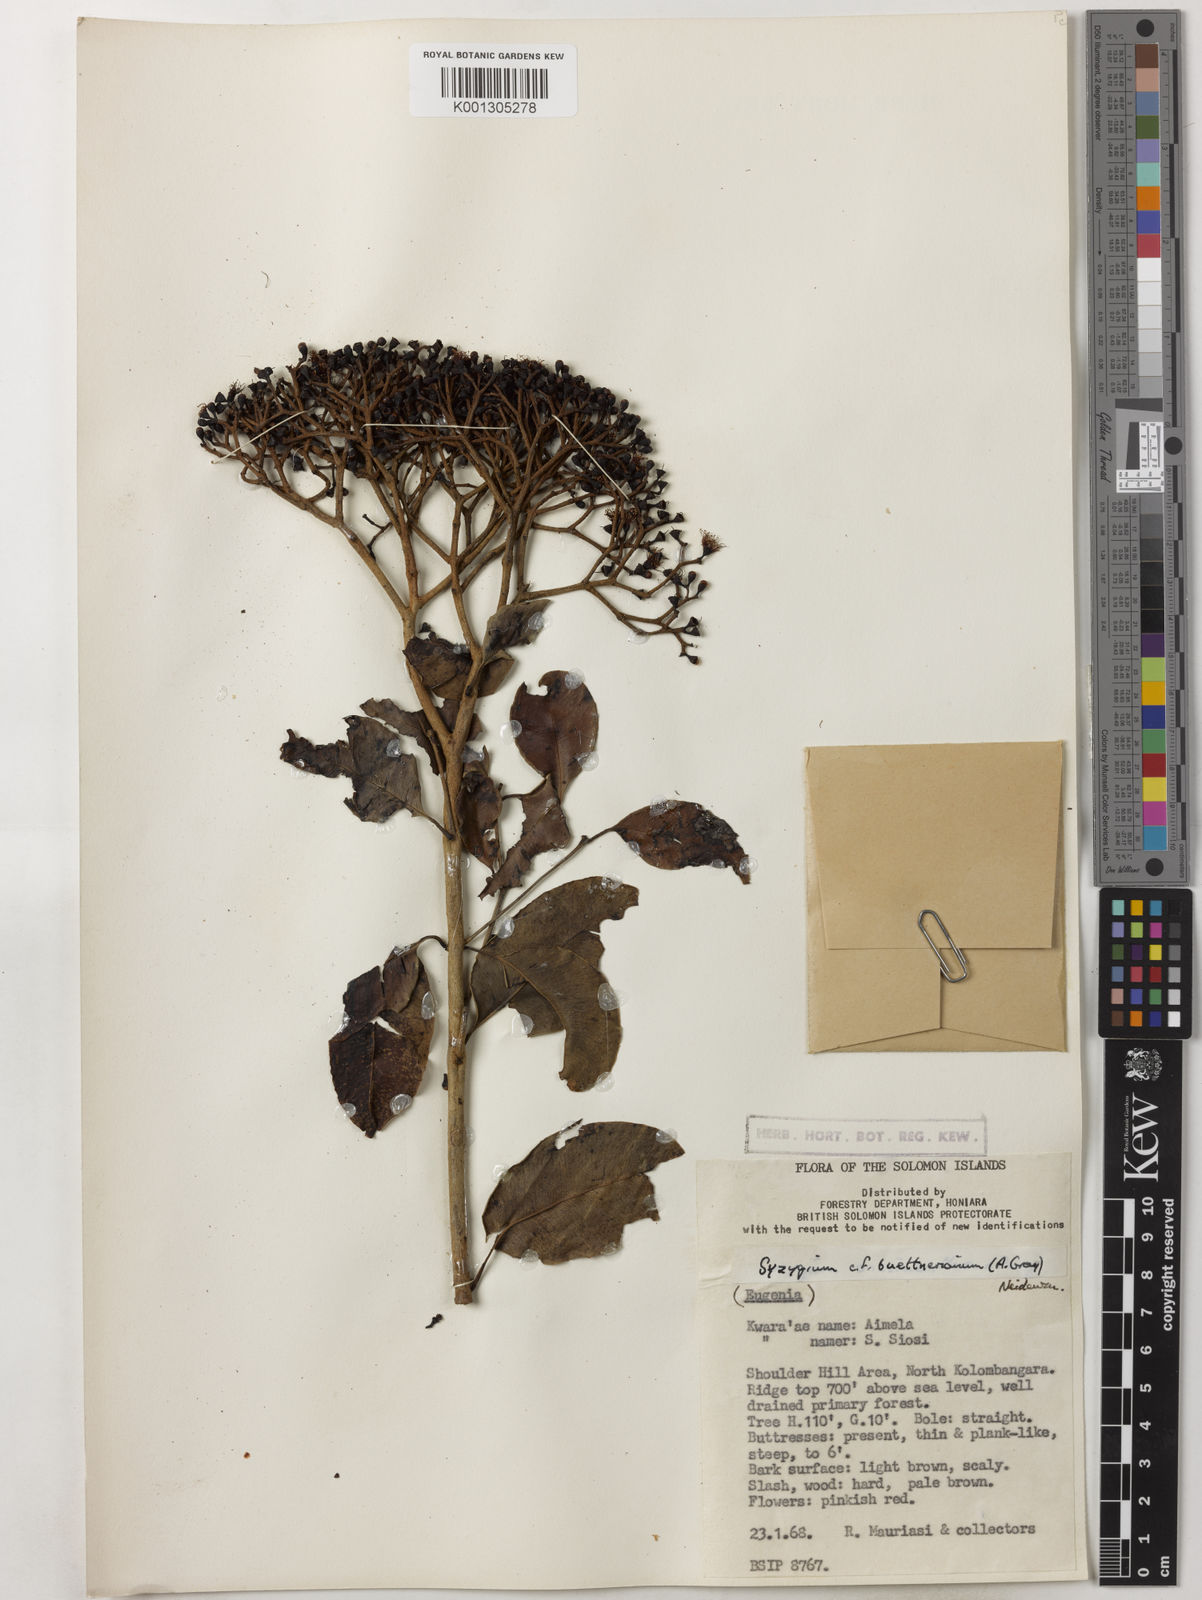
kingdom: Plantae
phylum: Tracheophyta
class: Magnoliopsida
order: Myrtales
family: Myrtaceae
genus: Syzygium
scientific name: Syzygium buettnerianum
